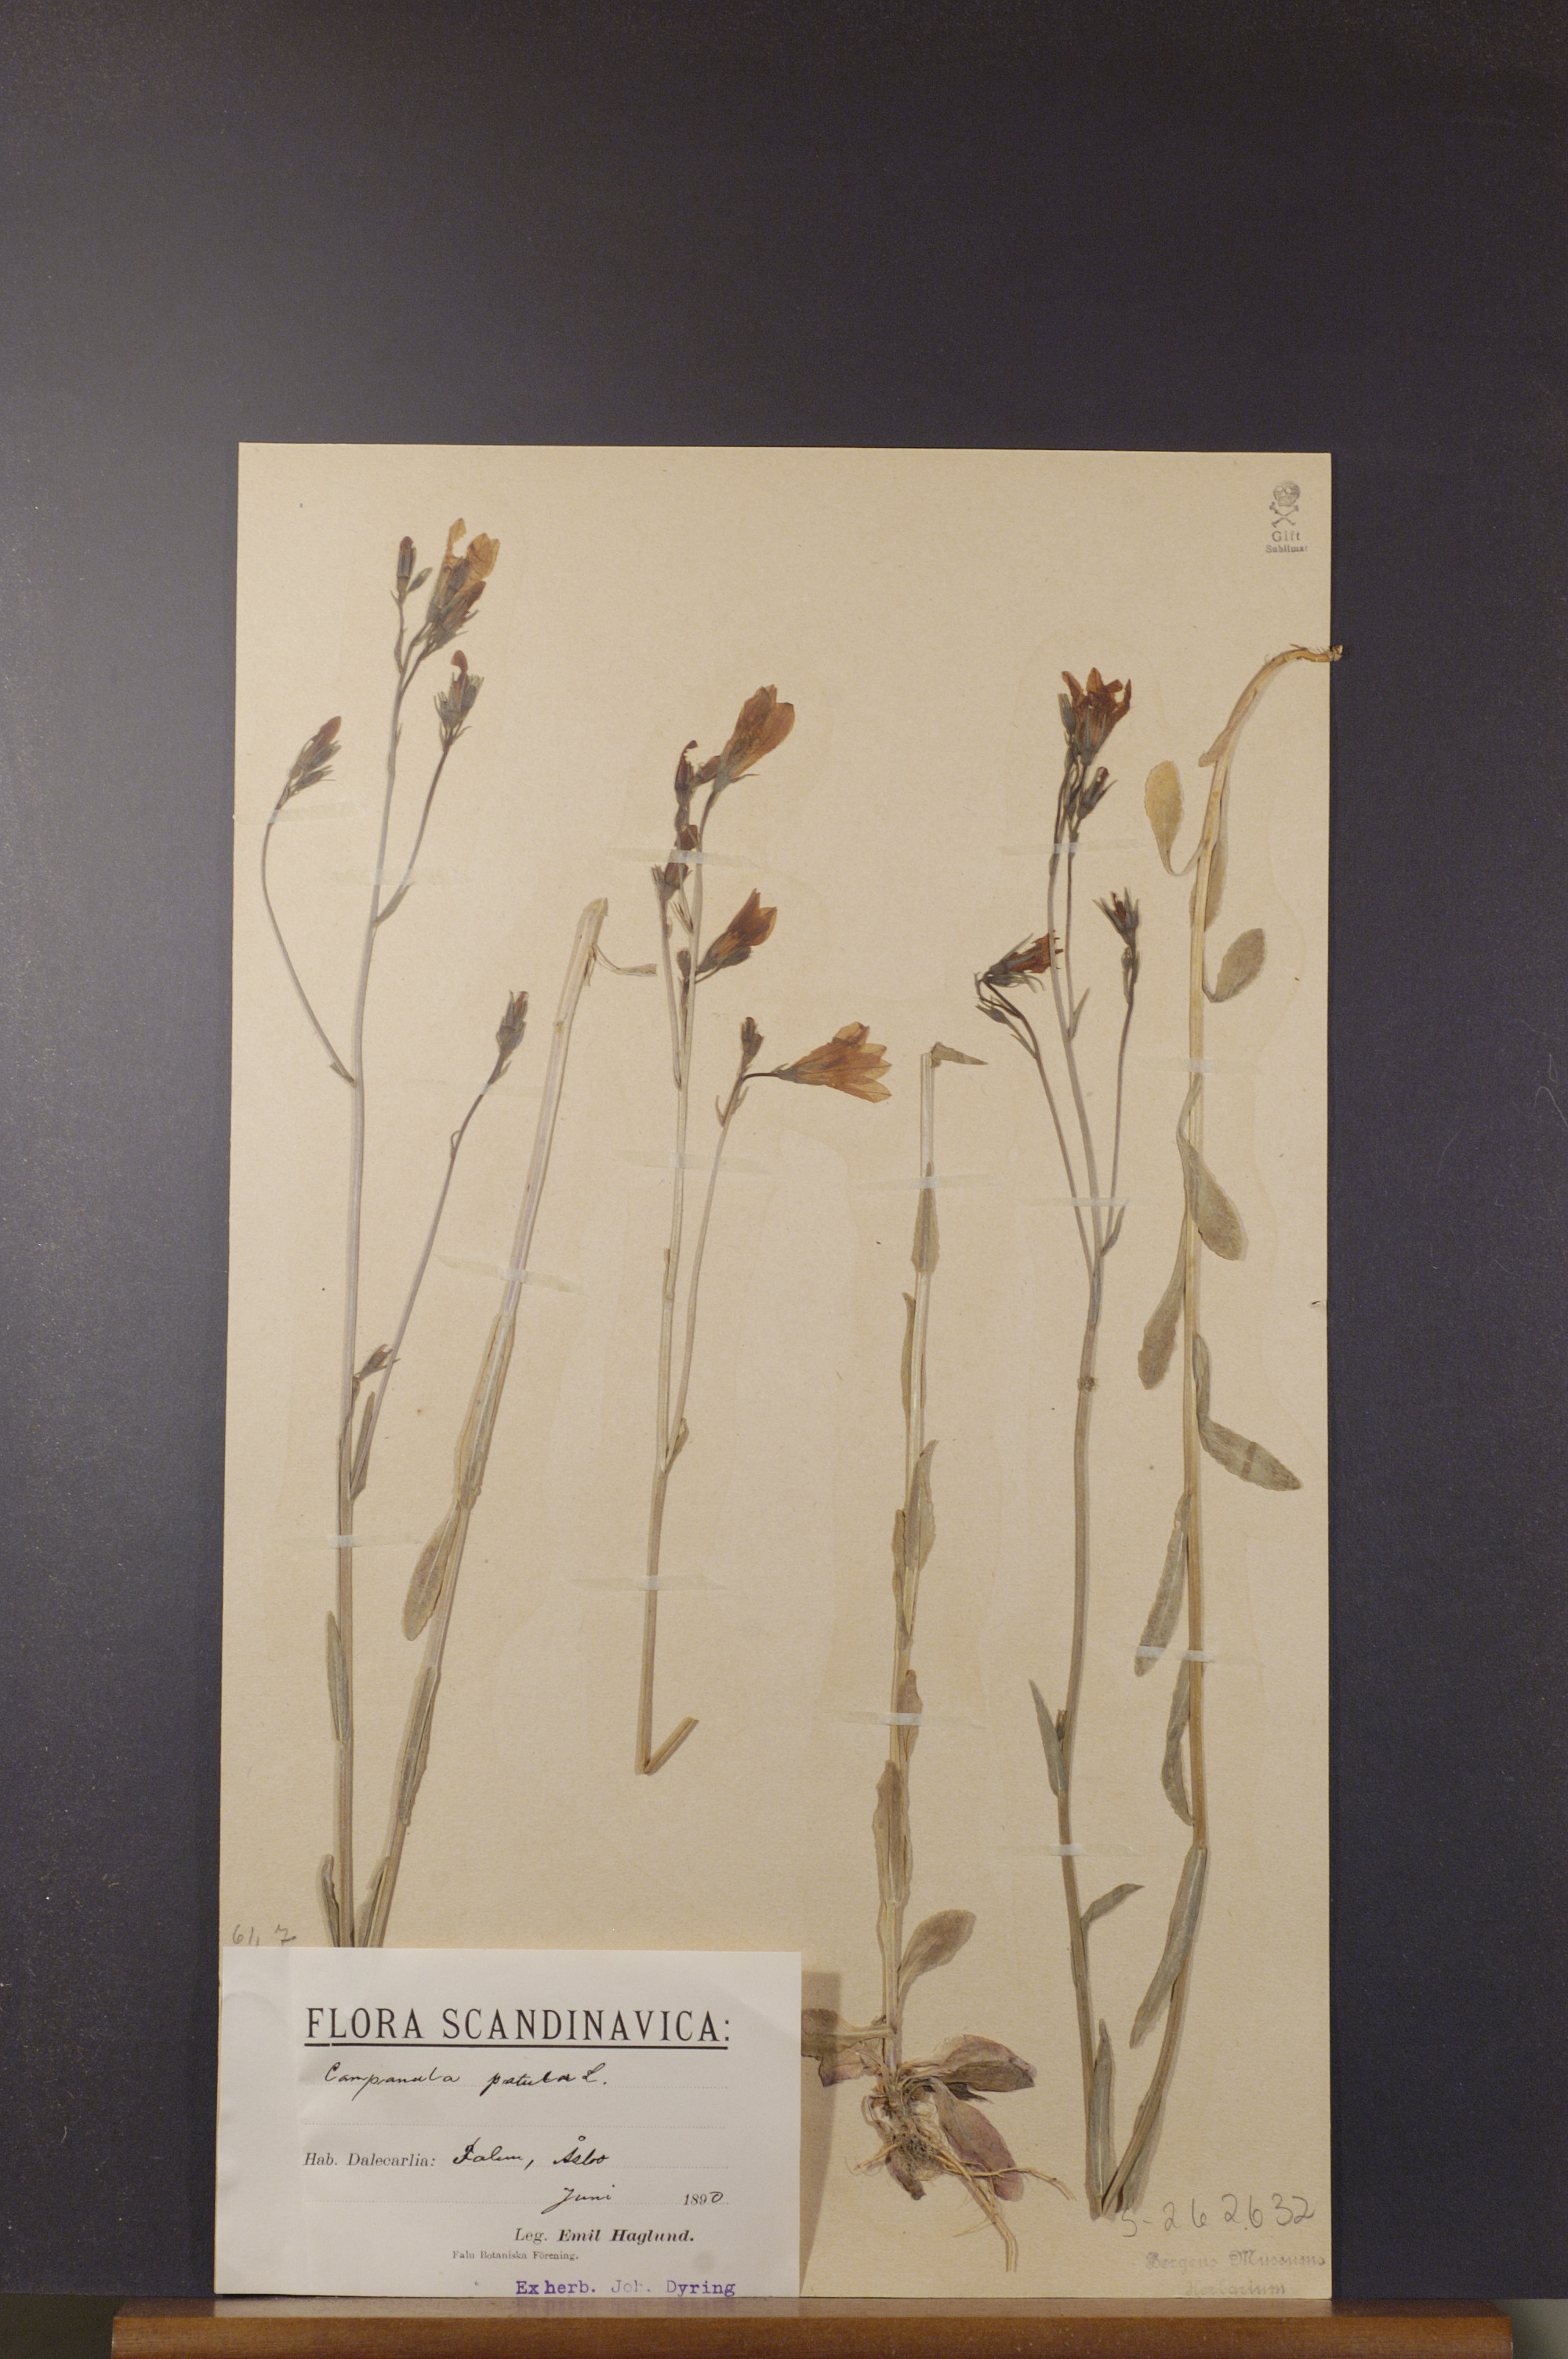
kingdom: Plantae
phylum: Tracheophyta
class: Magnoliopsida
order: Asterales
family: Campanulaceae
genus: Campanula
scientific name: Campanula patula
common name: Spreading bellflower
